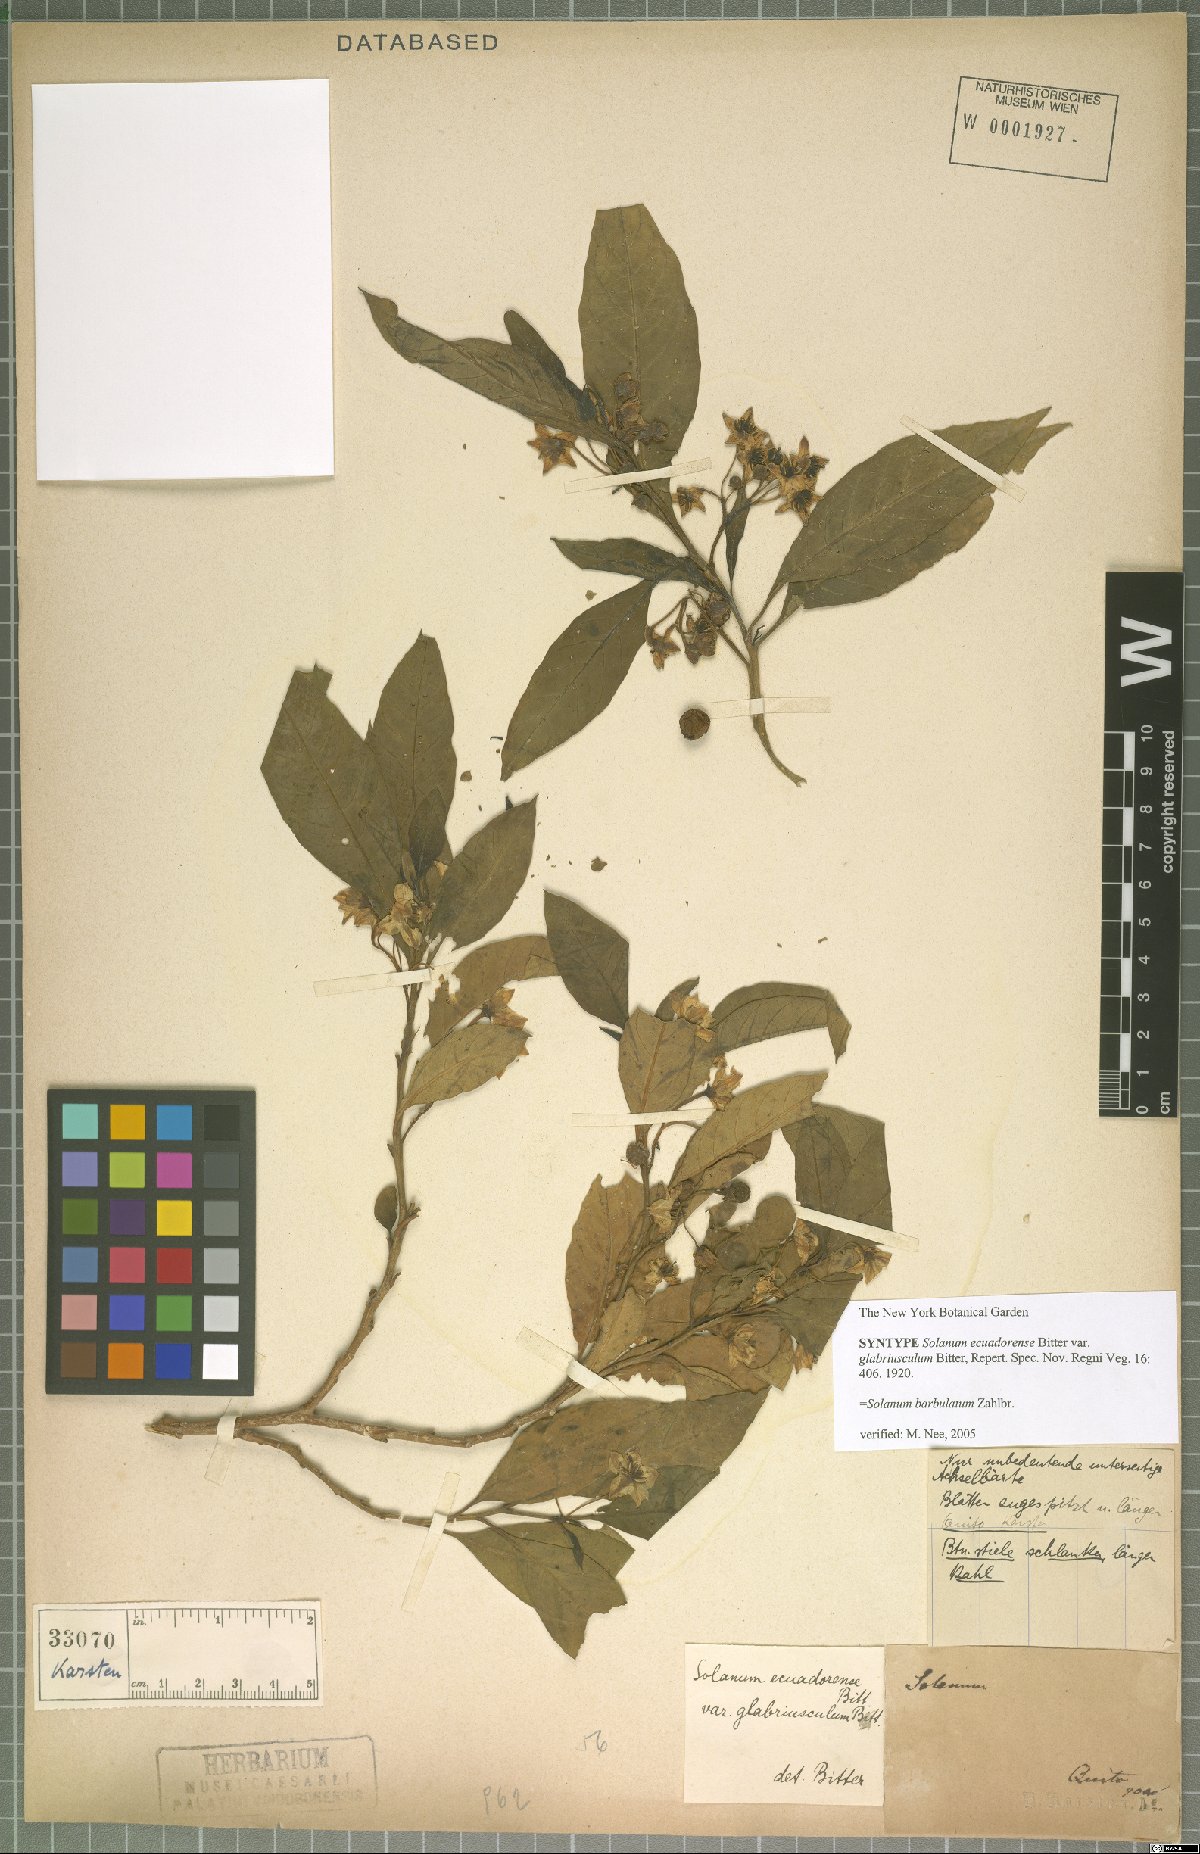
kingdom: Plantae
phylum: Tracheophyta
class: Magnoliopsida
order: Solanales
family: Solanaceae
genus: Solanum
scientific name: Solanum barbulatum
